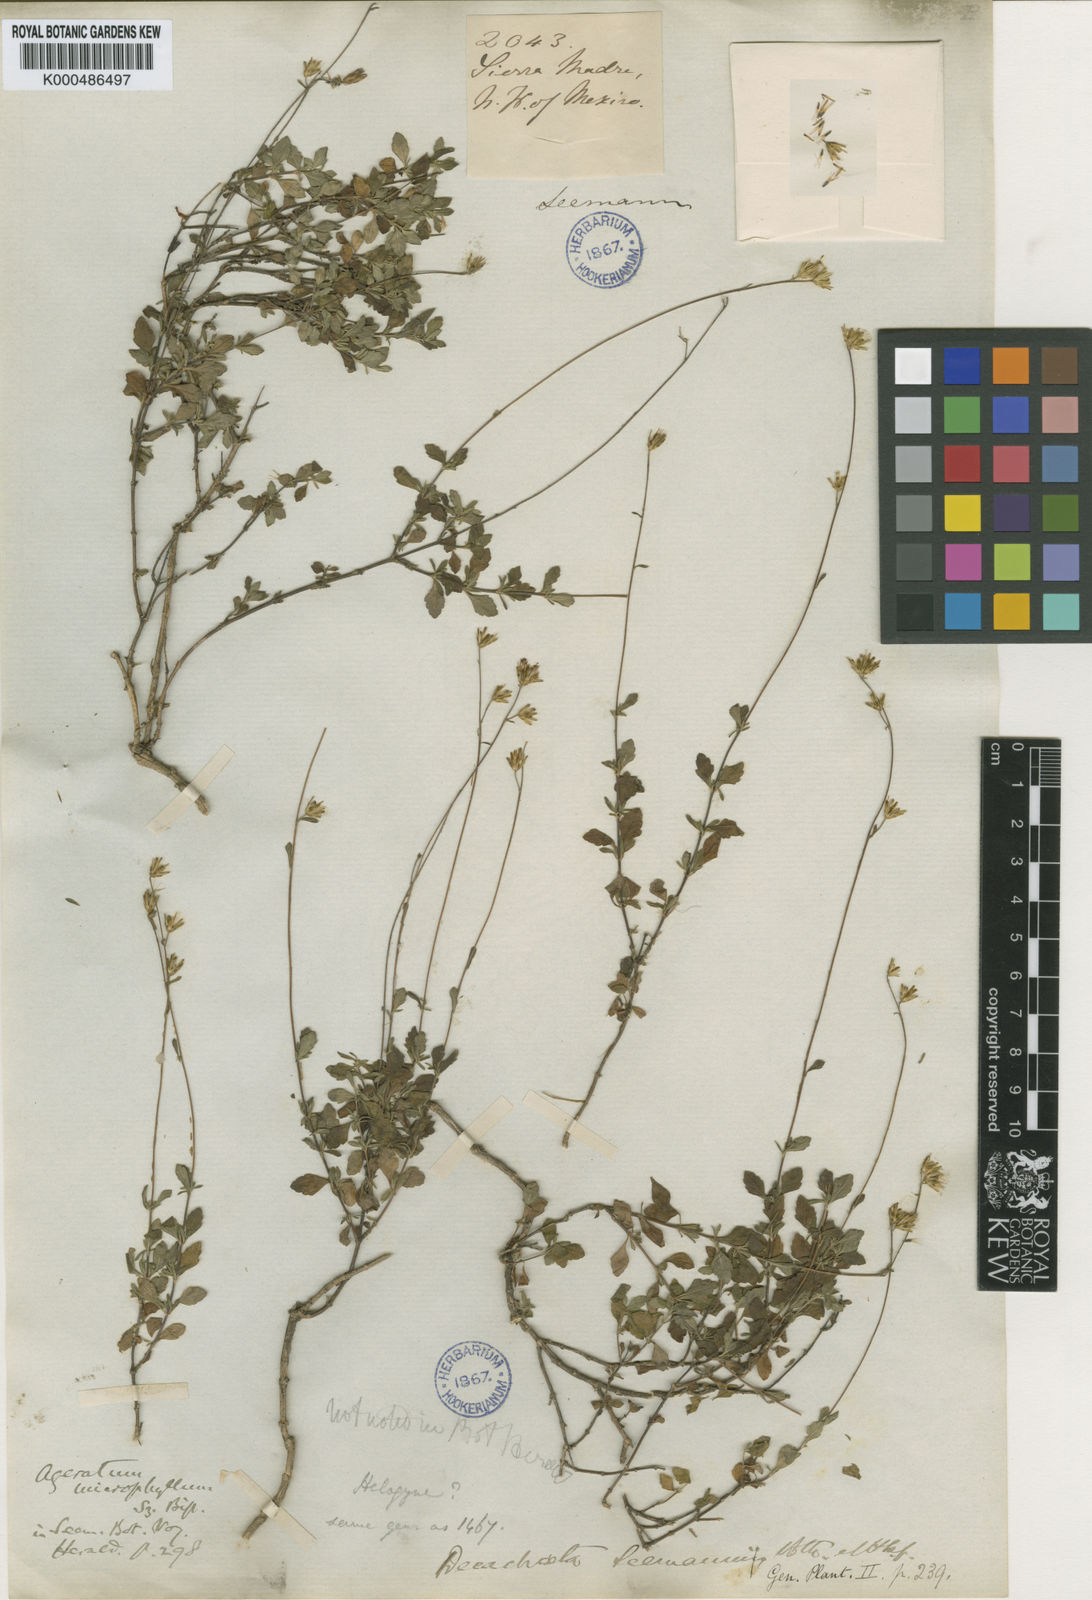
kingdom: Plantae
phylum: Tracheophyta
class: Magnoliopsida
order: Asterales
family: Asteraceae
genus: Ageratella
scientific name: Ageratella
